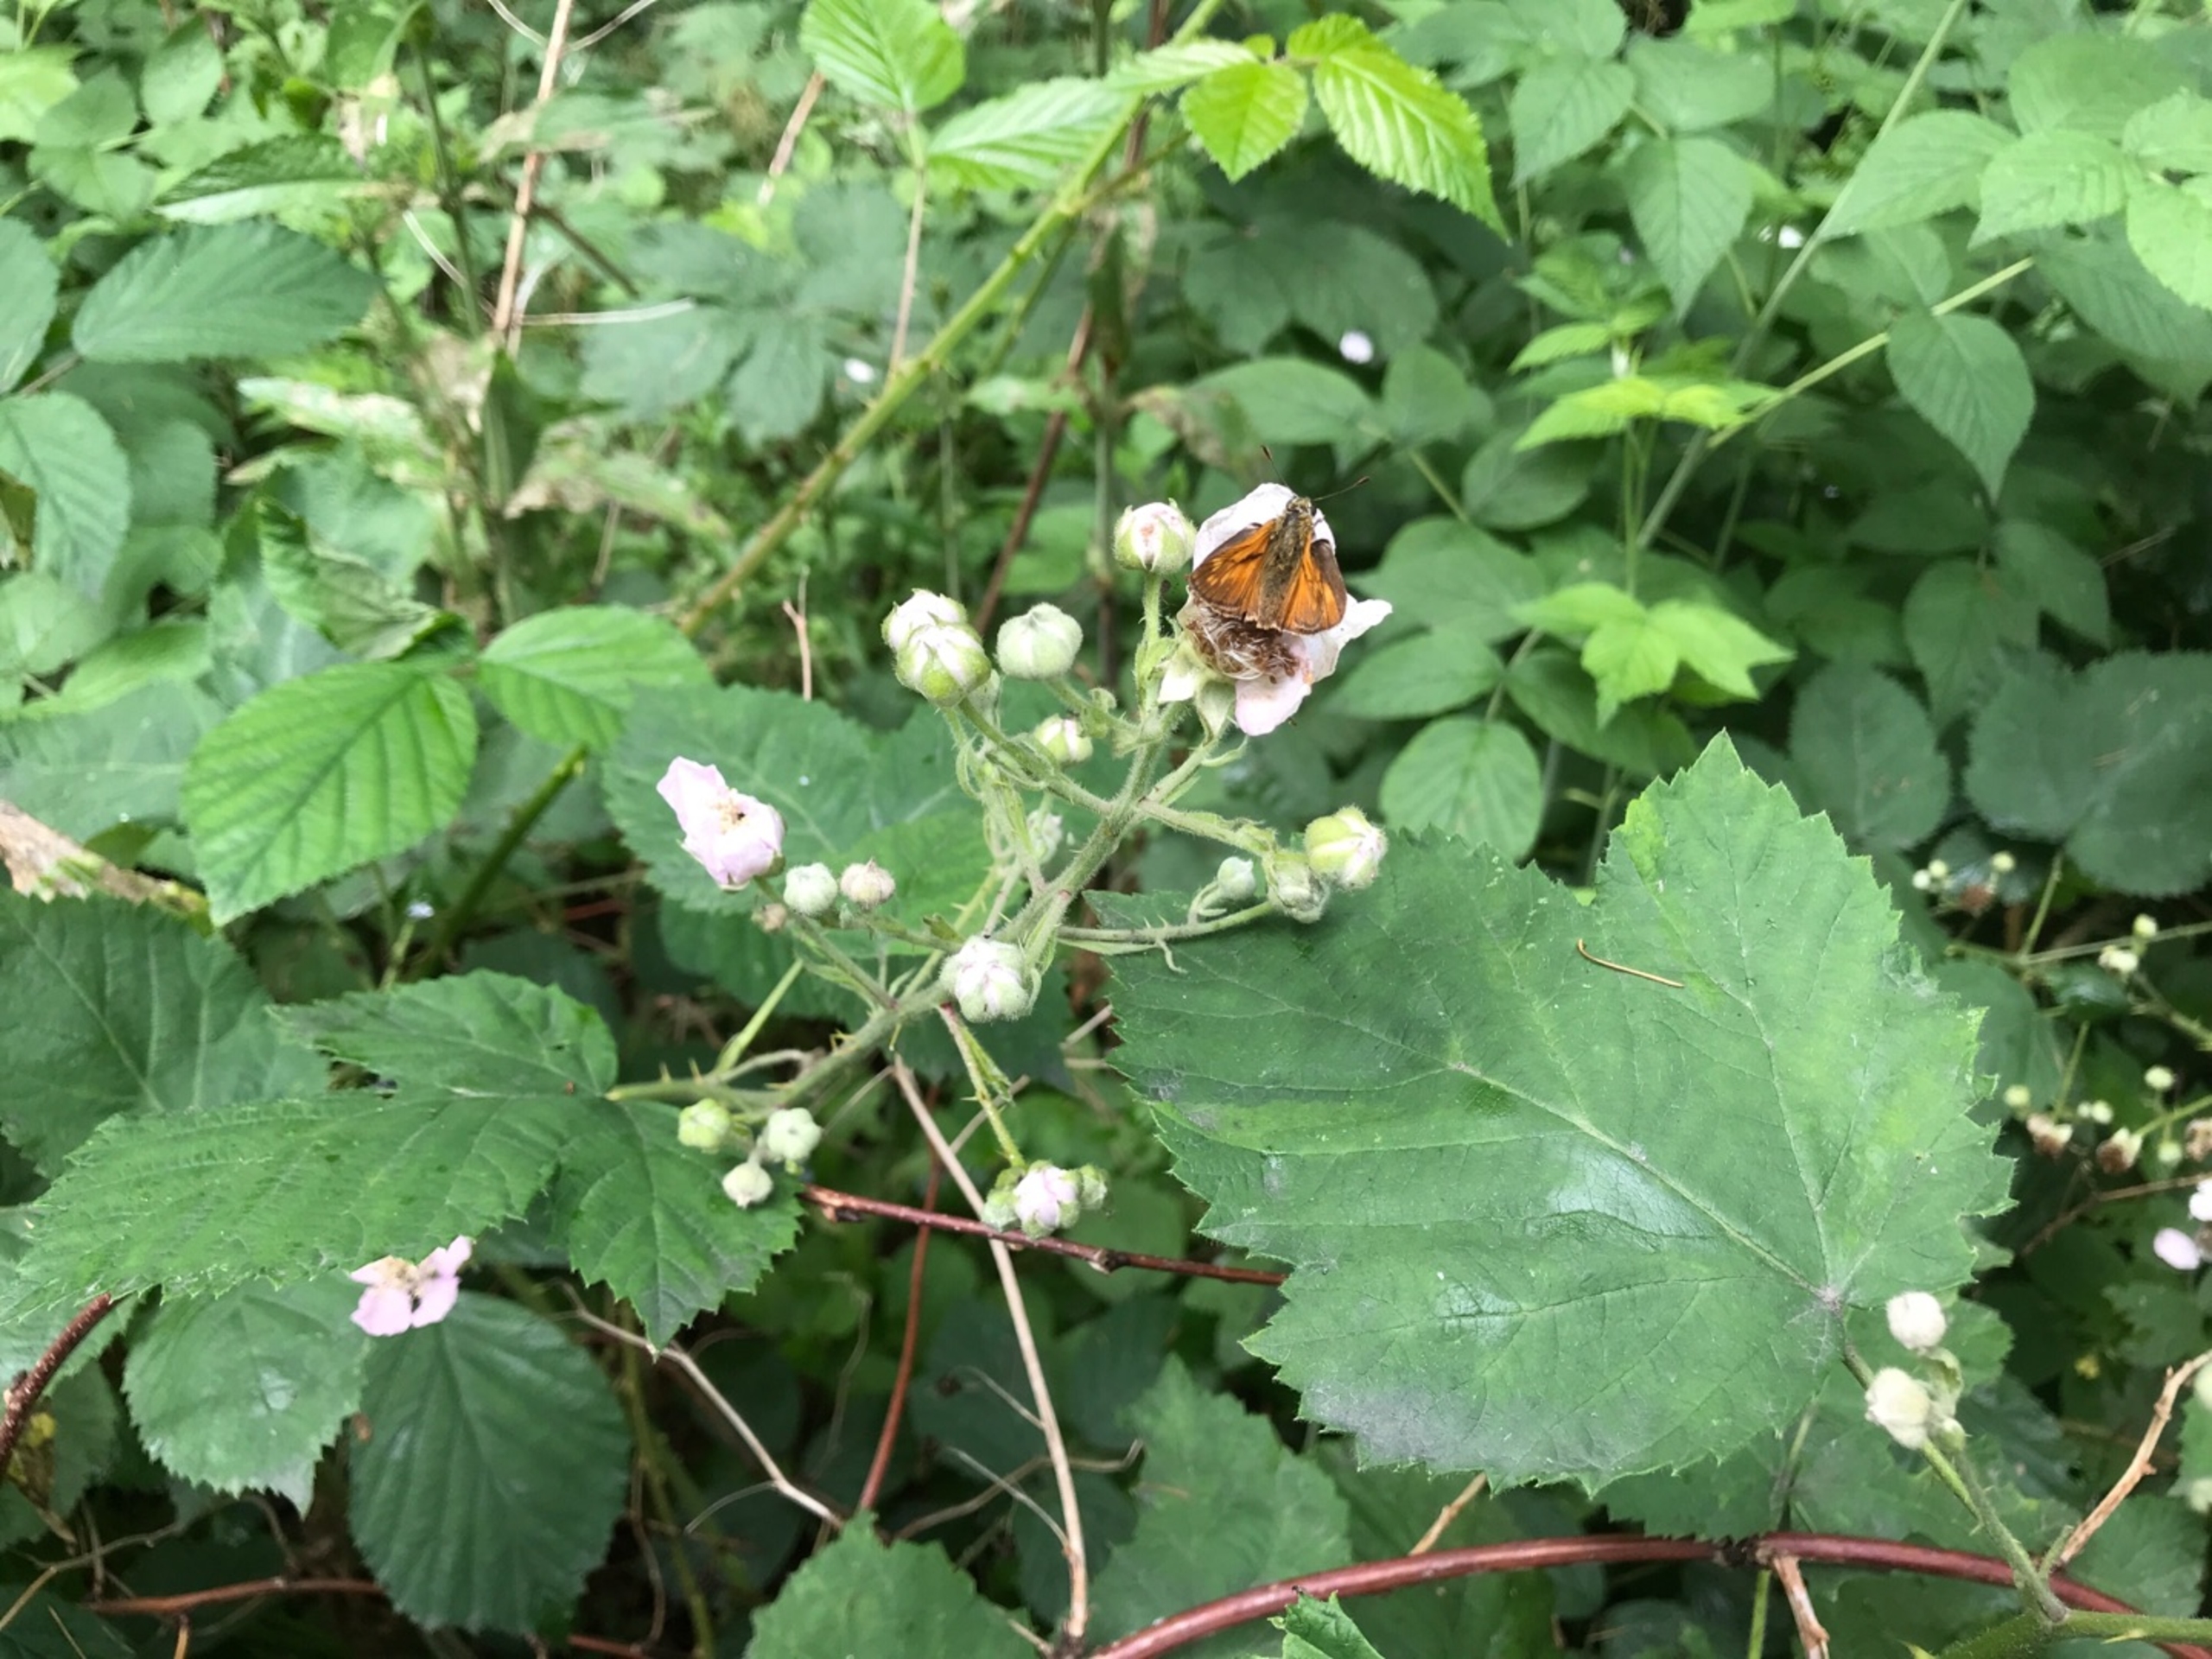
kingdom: Animalia
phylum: Arthropoda
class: Insecta
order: Lepidoptera
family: Hesperiidae
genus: Ochlodes
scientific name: Ochlodes venata
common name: Stor bredpande
